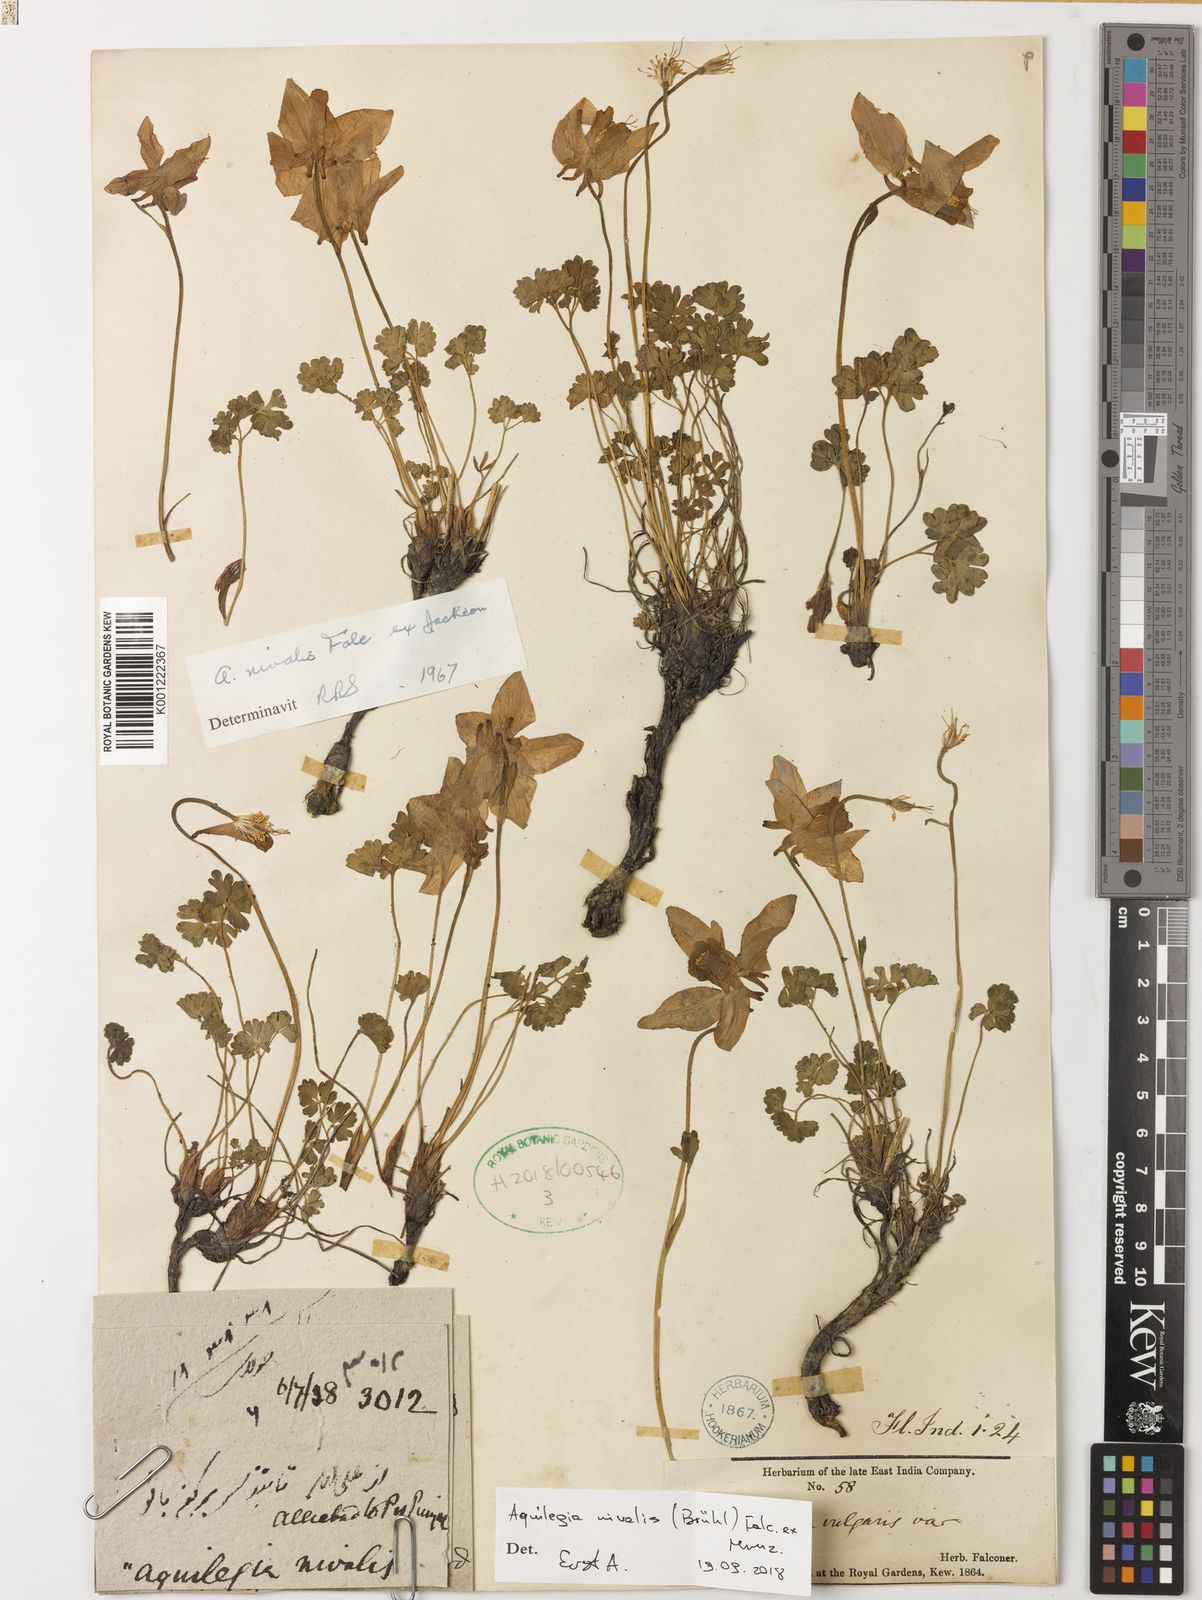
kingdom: Plantae
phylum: Tracheophyta
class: Magnoliopsida
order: Ranunculales
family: Ranunculaceae
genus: Aquilegia
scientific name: Aquilegia
